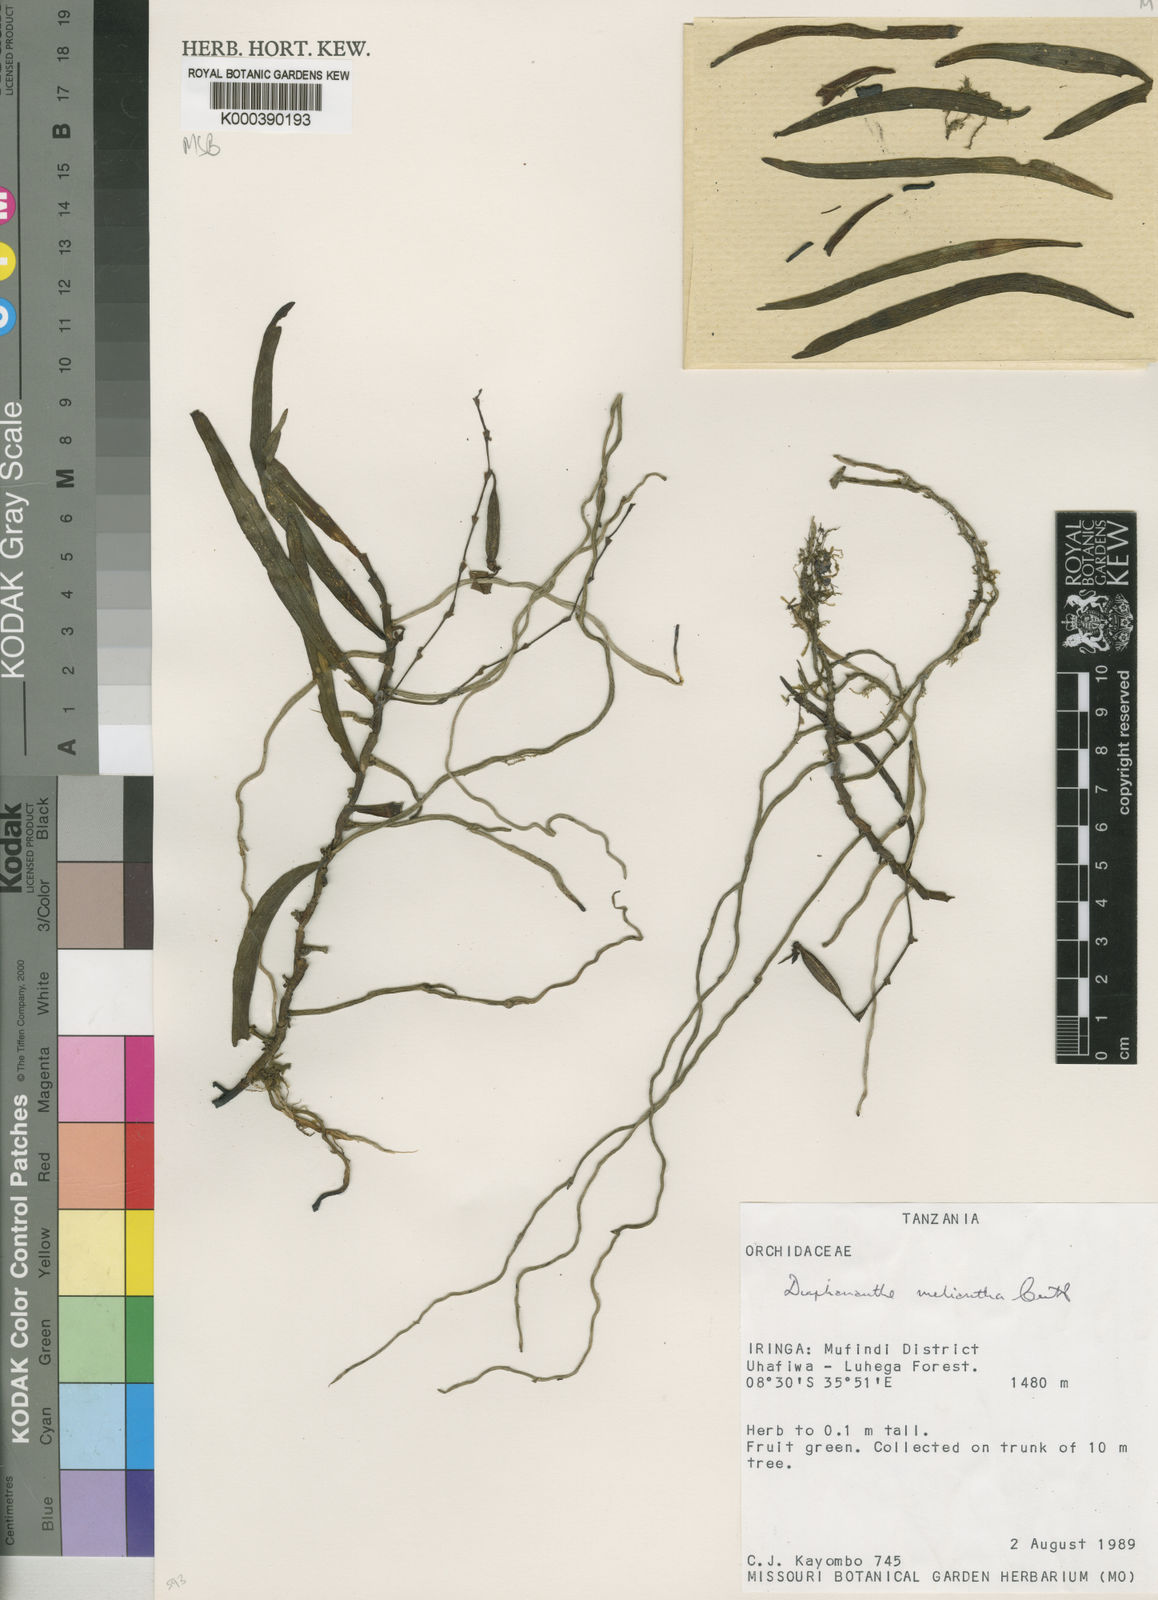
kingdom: Plantae
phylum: Tracheophyta
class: Liliopsida
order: Asparagales
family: Orchidaceae
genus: Rhipidoglossum
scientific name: Rhipidoglossum melianthum
